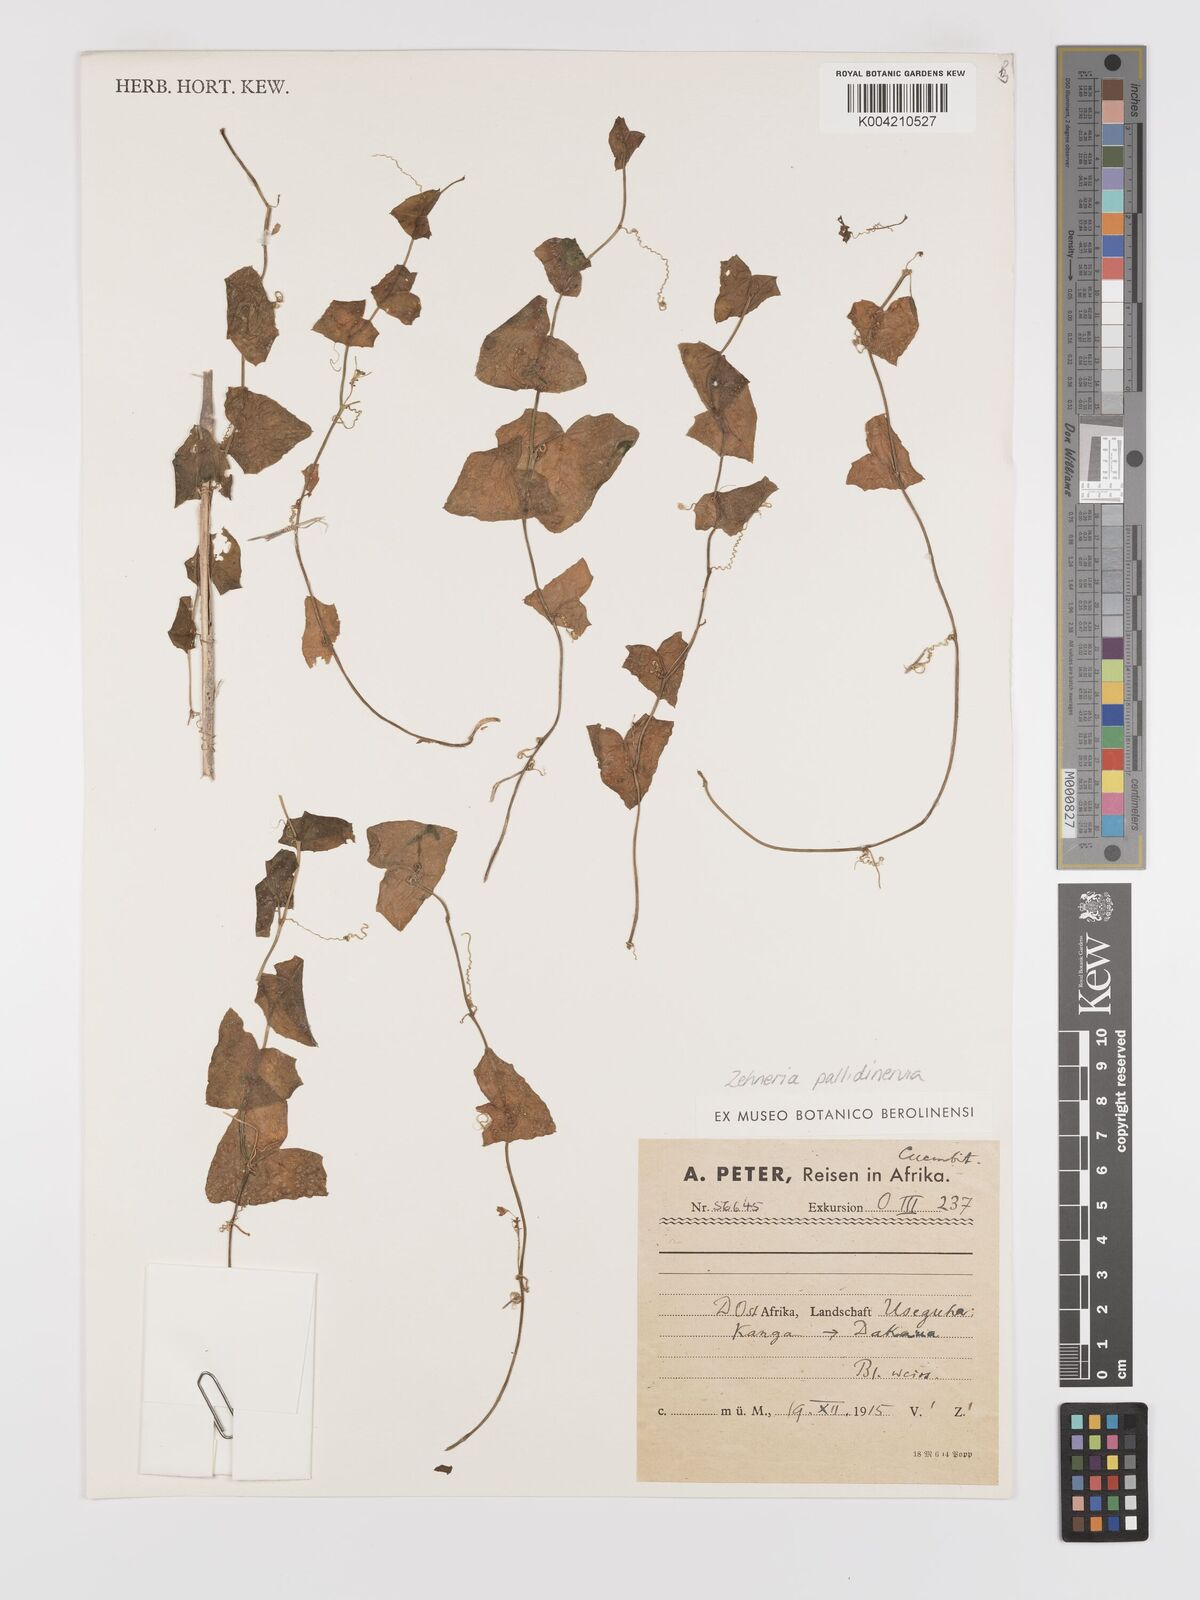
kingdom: Plantae
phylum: Tracheophyta
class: Magnoliopsida
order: Cucurbitales
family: Cucurbitaceae
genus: Zehneria
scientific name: Zehneria pallidinervia
